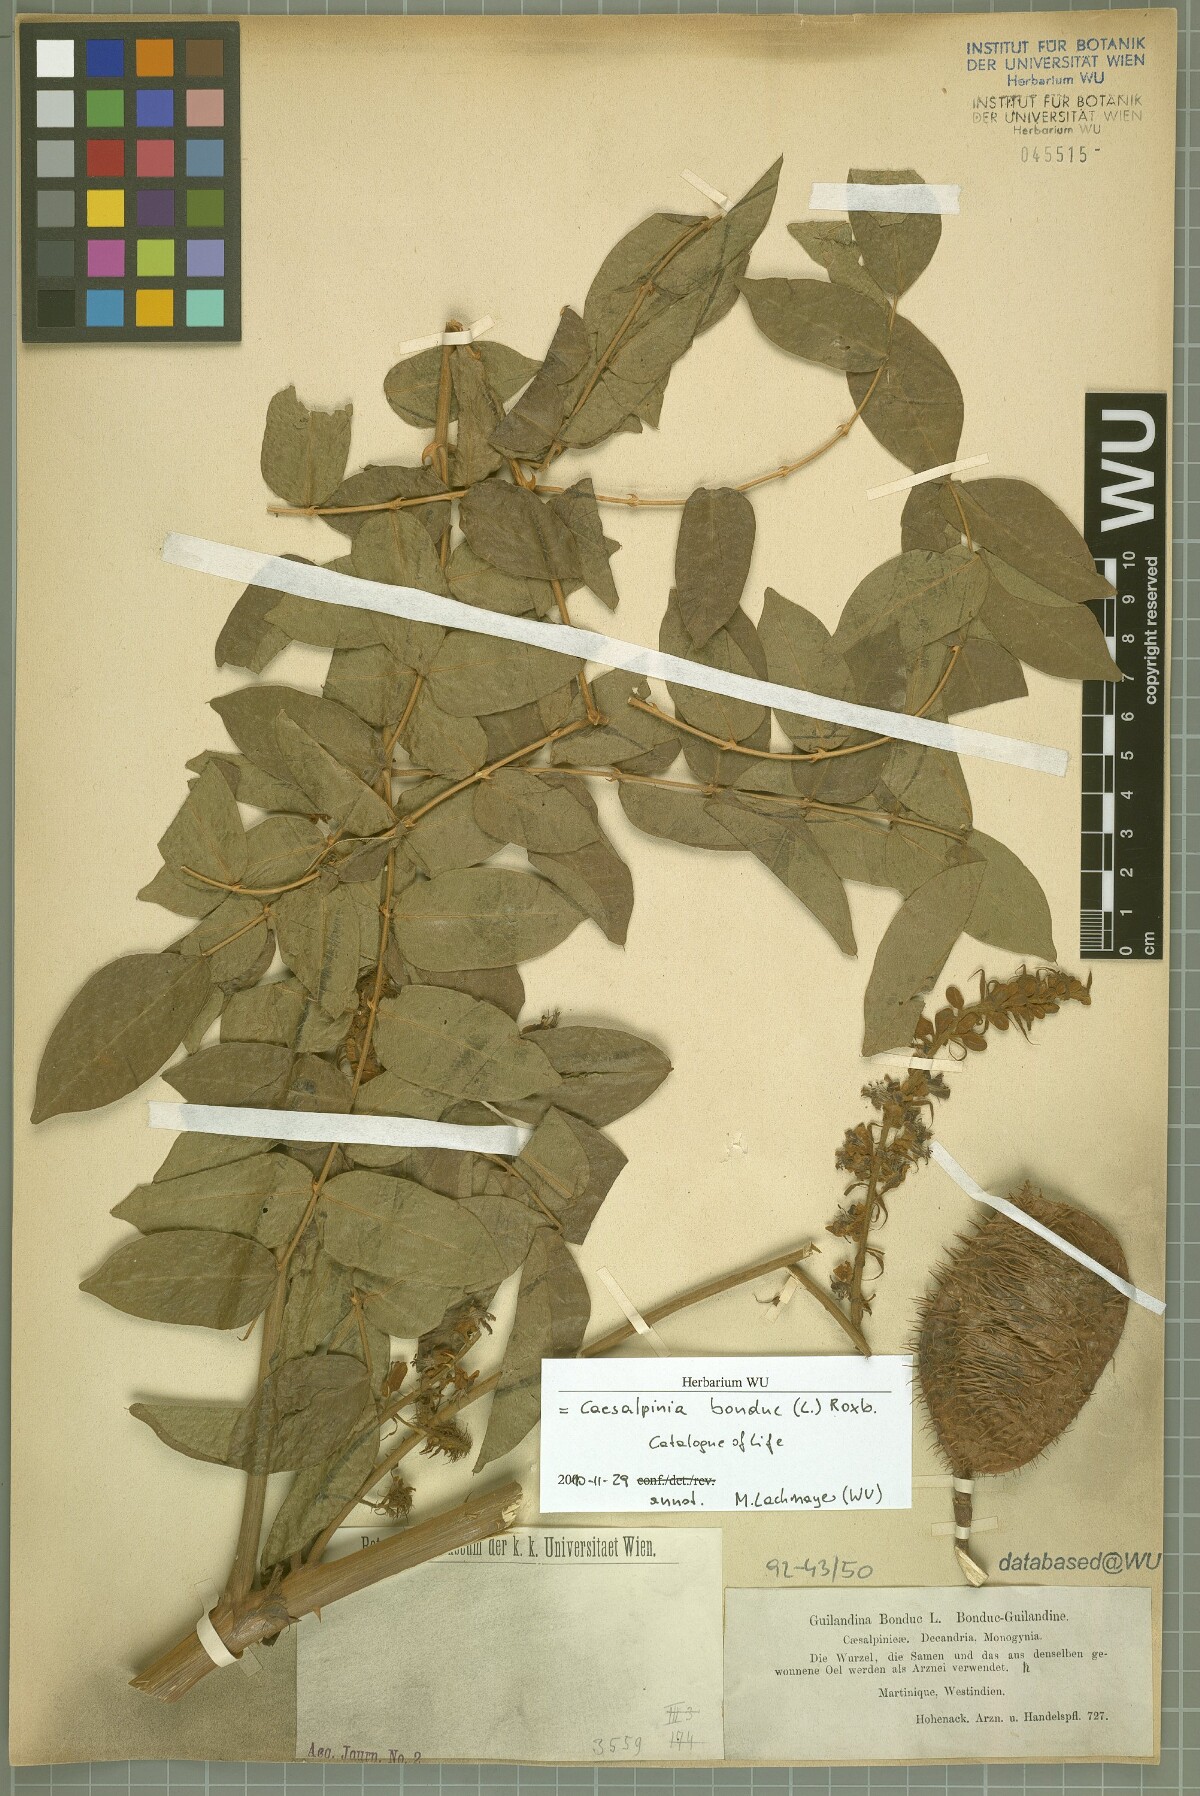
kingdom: Plantae
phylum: Tracheophyta
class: Magnoliopsida
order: Fabales
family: Fabaceae
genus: Guilandina
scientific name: Guilandina bonduc
